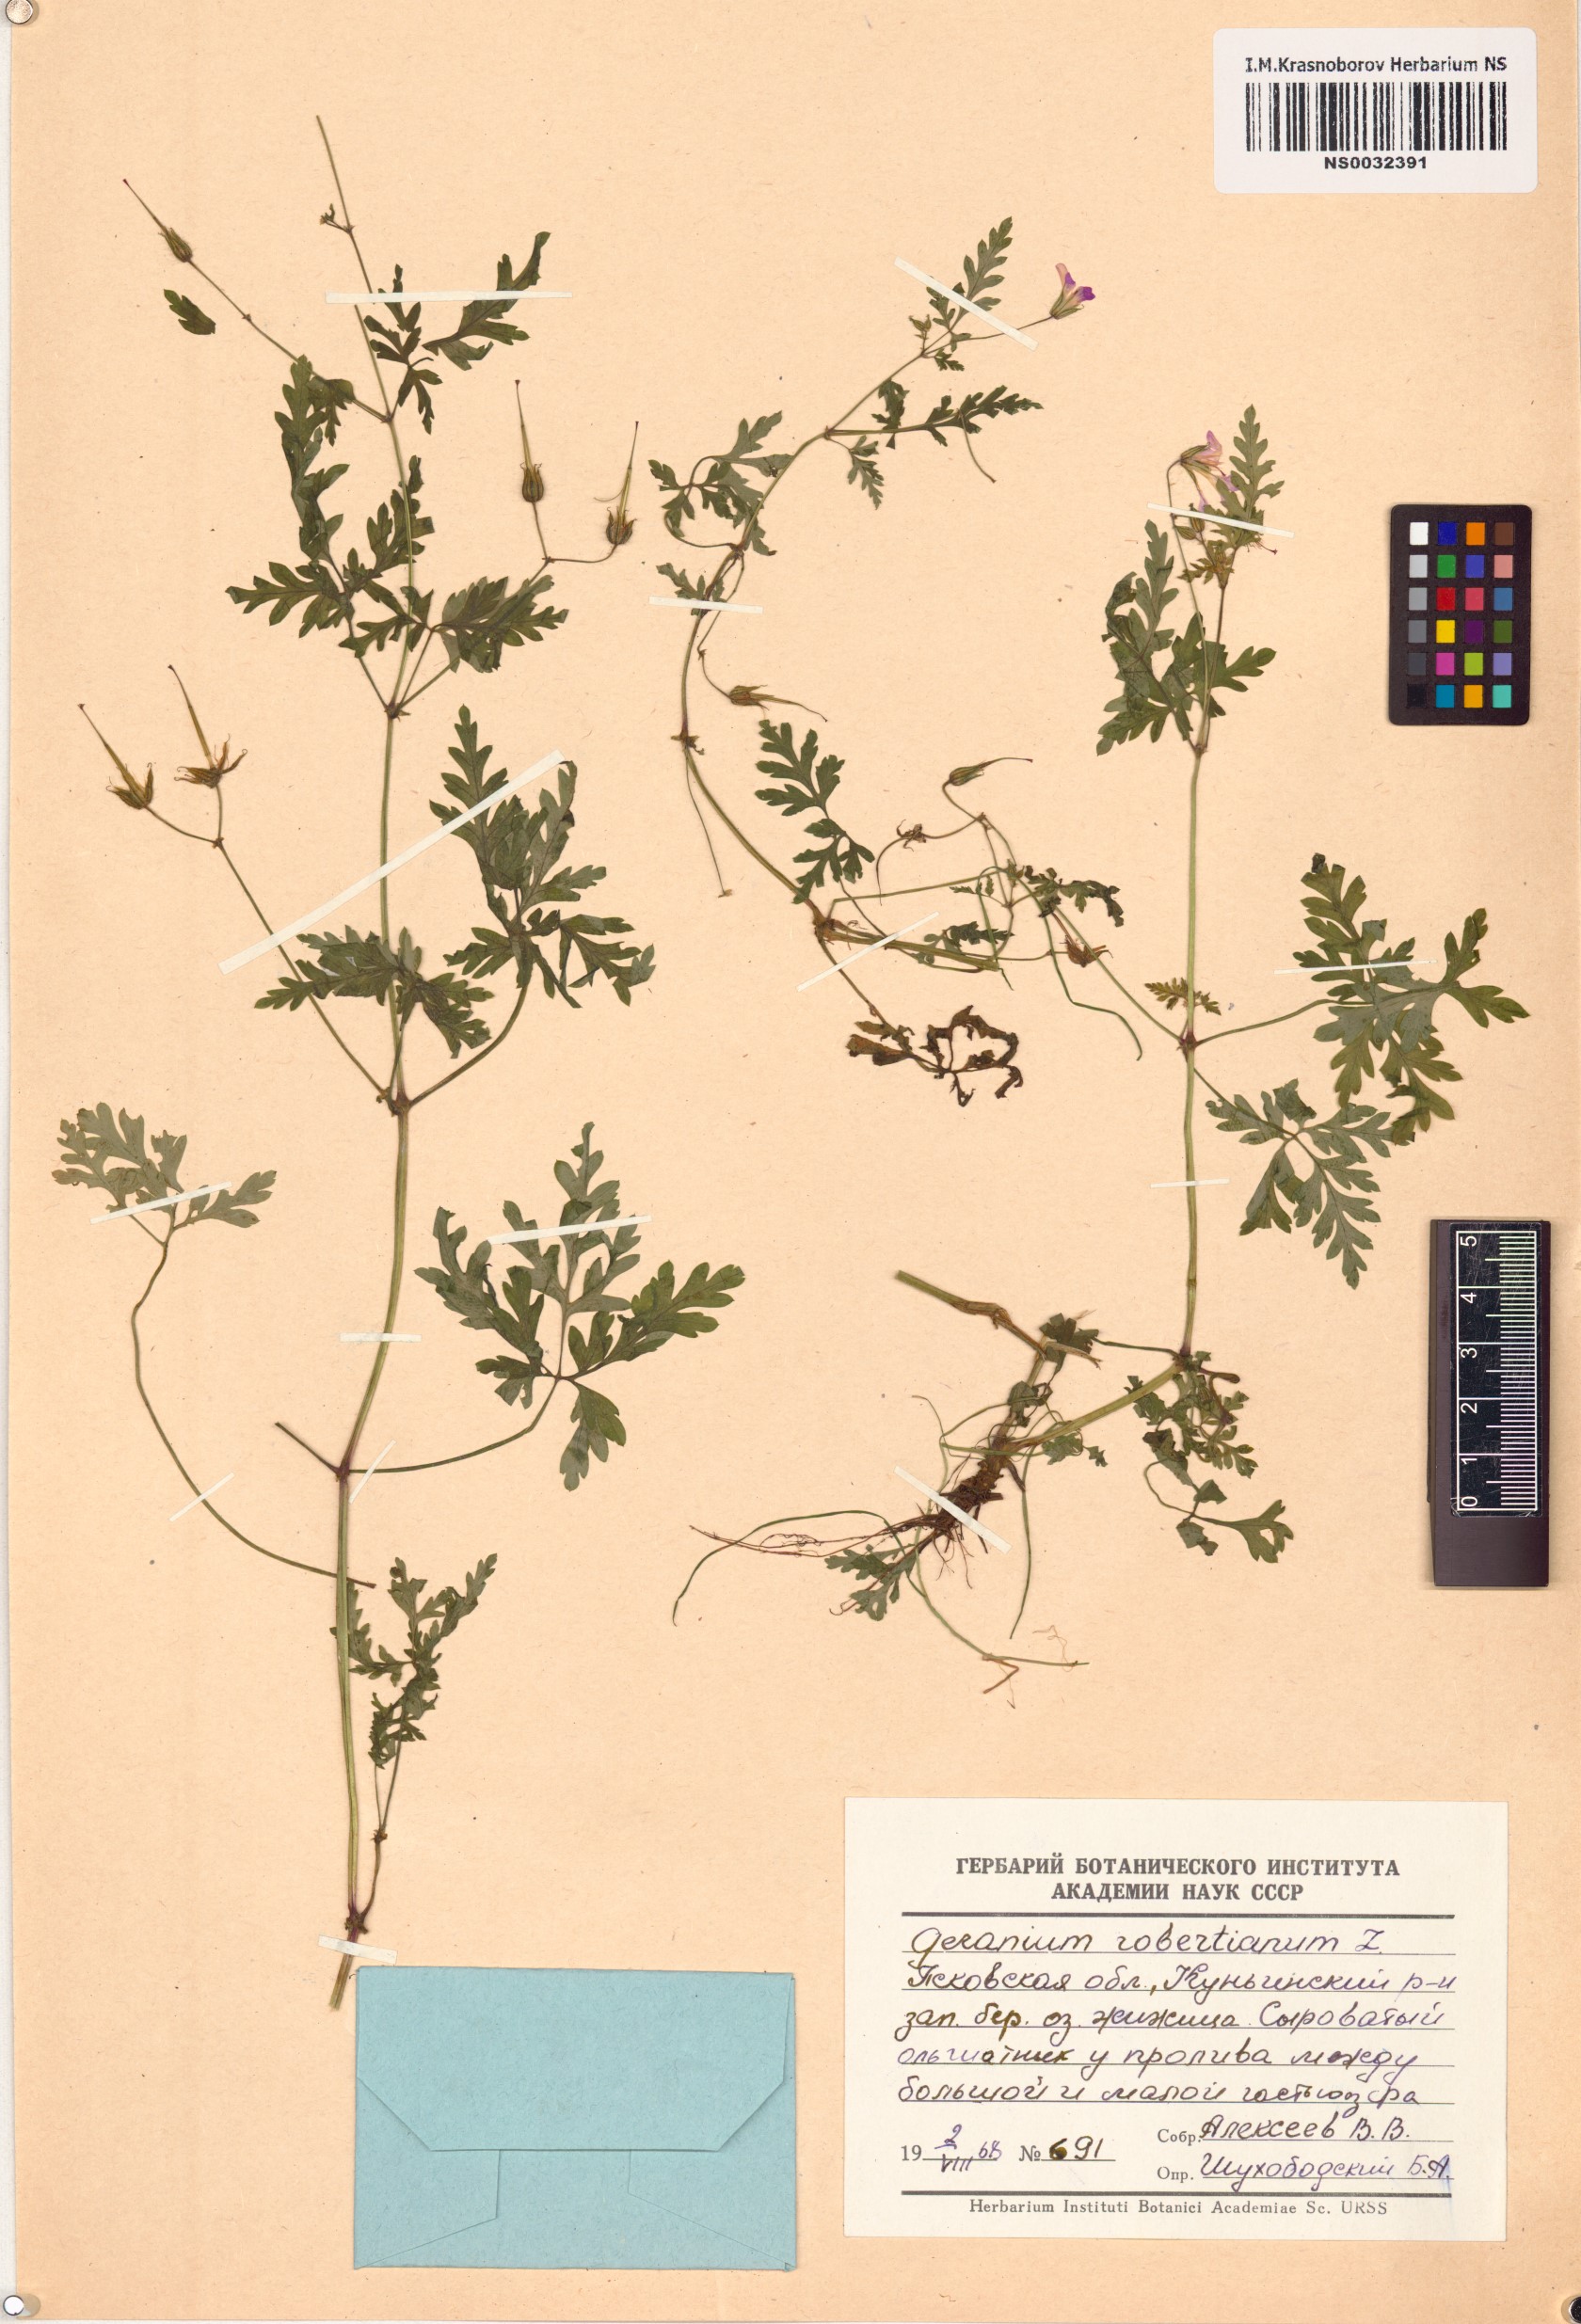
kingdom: Plantae
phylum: Tracheophyta
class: Magnoliopsida
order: Geraniales
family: Geraniaceae
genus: Geranium
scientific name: Geranium robertianum
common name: Herb-robert
